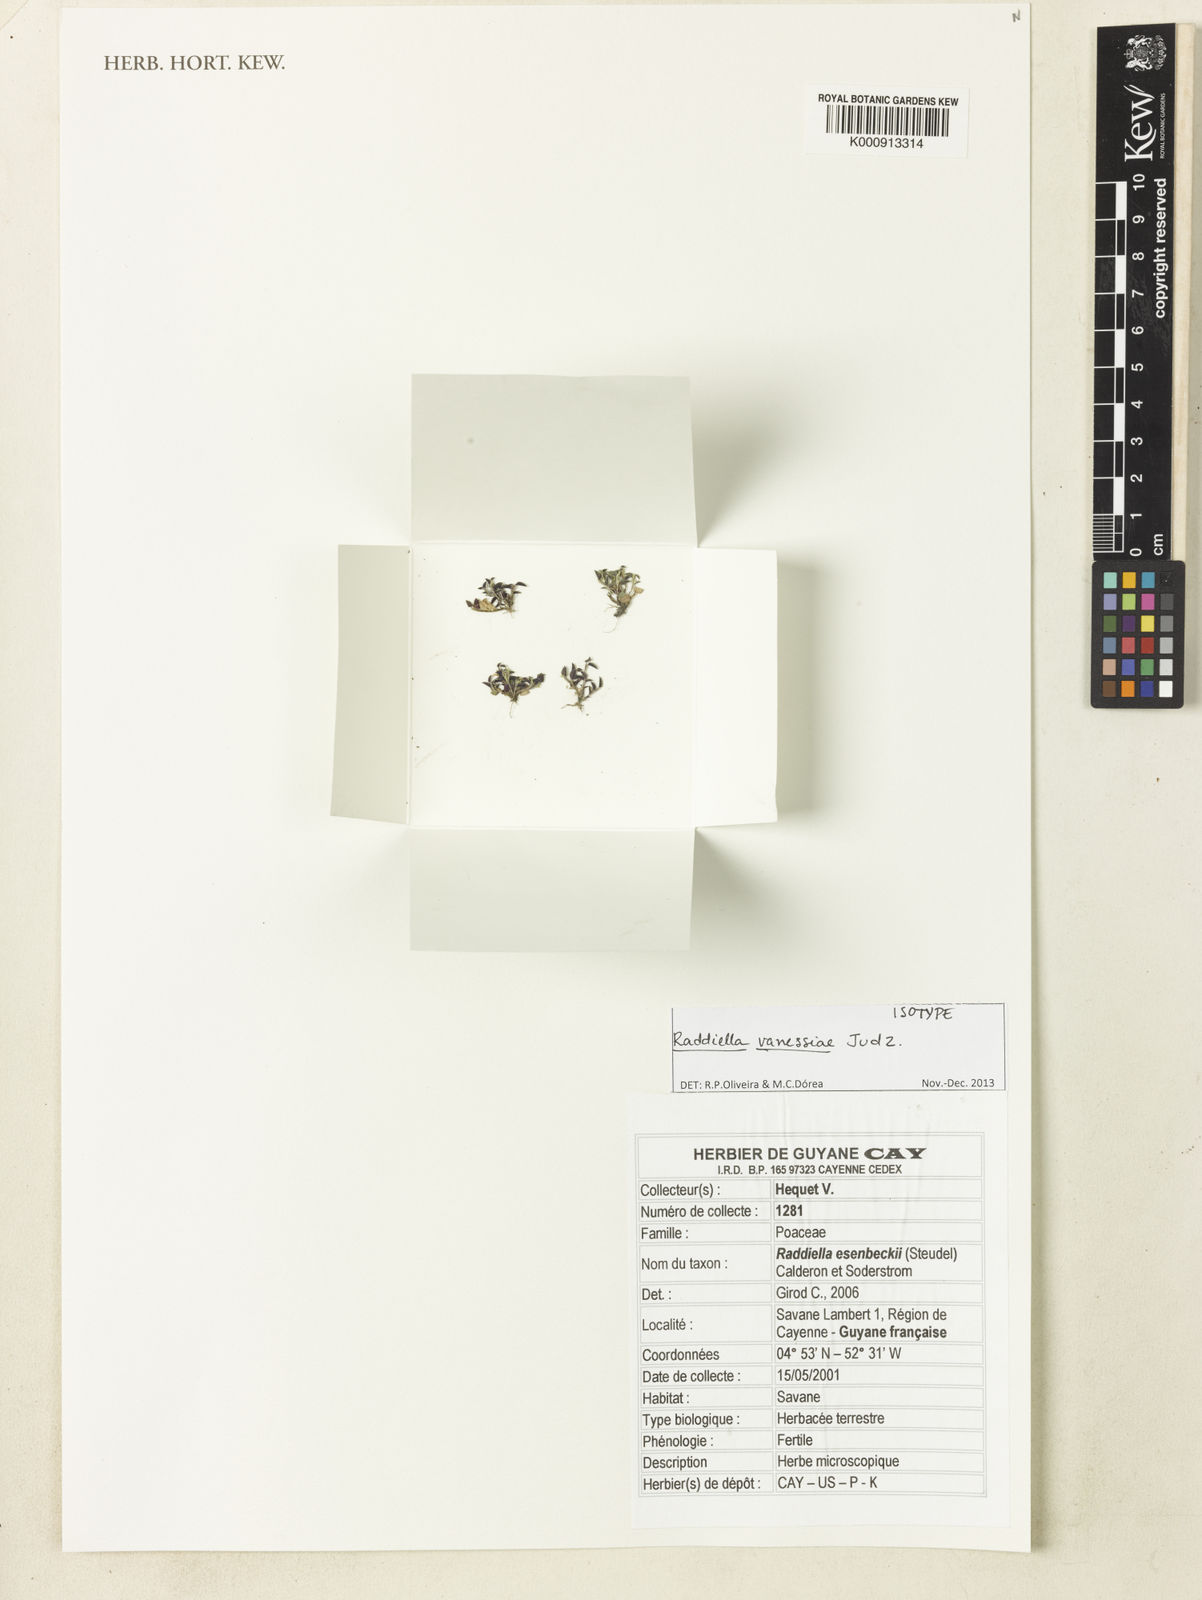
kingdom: Plantae
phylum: Tracheophyta
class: Liliopsida
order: Poales
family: Poaceae
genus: Raddiella
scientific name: Raddiella vanessiae
